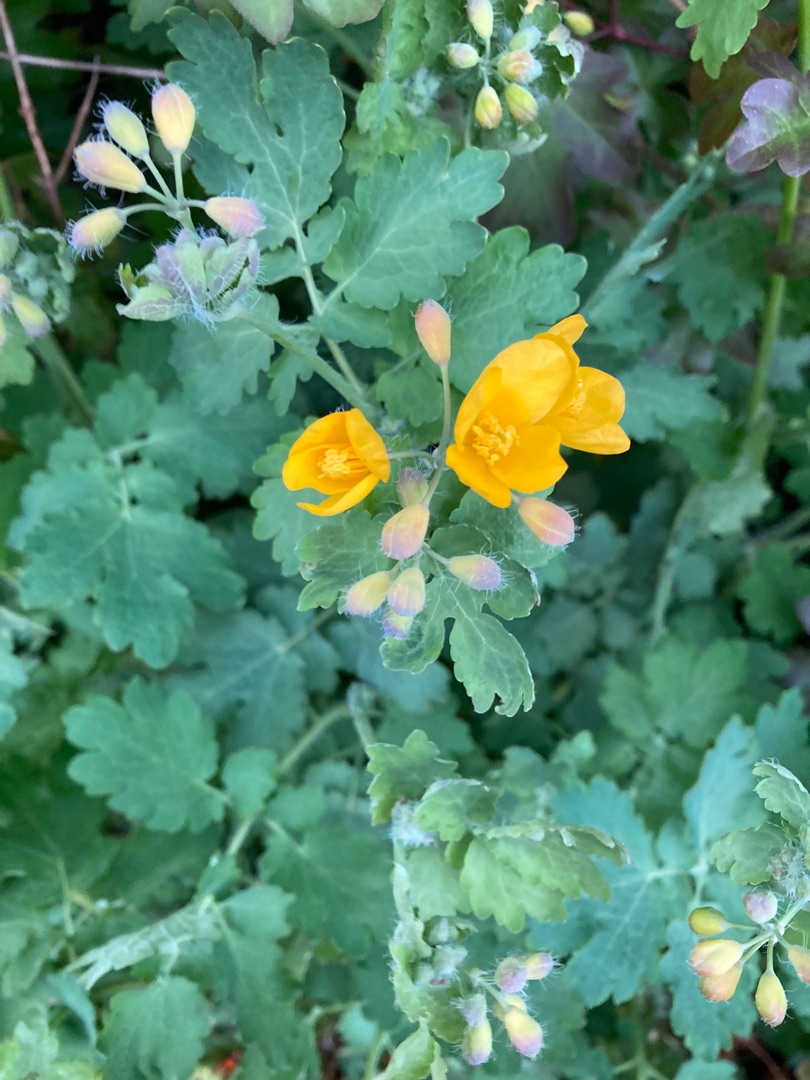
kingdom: Plantae
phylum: Tracheophyta
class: Magnoliopsida
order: Ranunculales
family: Papaveraceae
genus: Chelidonium
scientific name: Chelidonium majus
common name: Svaleurt
